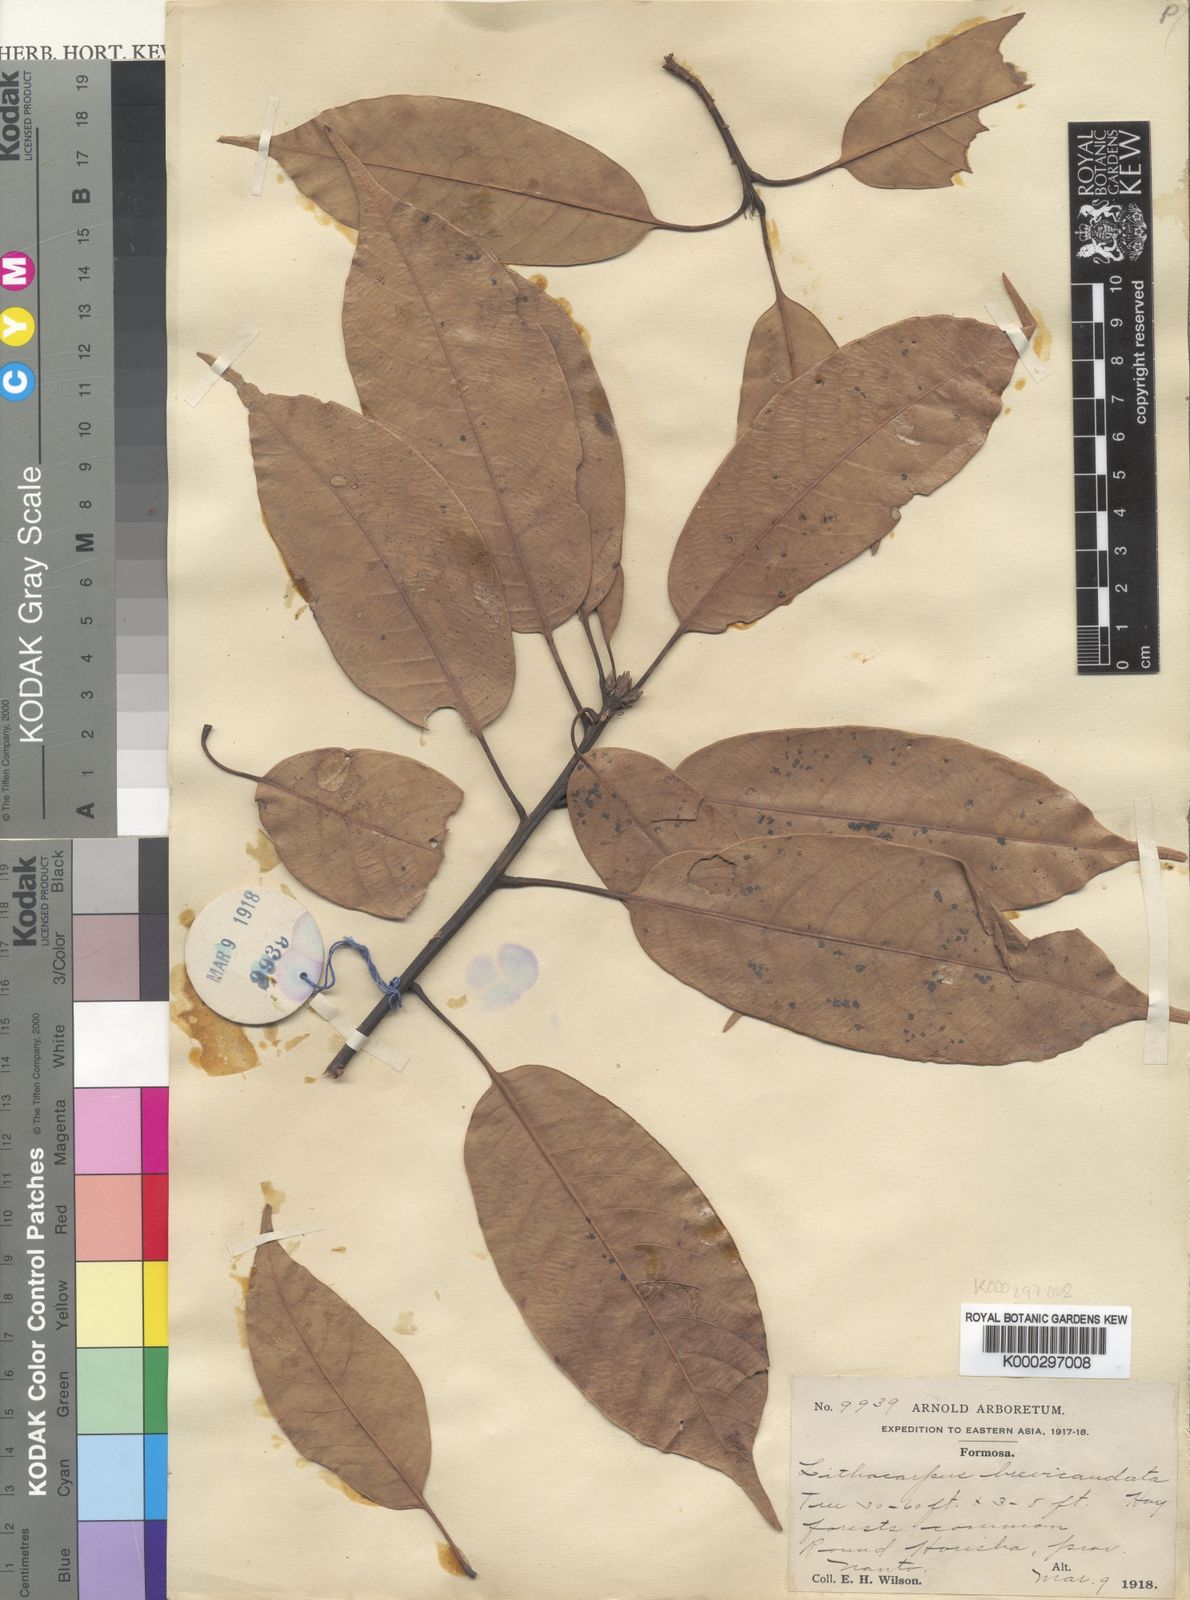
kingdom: Plantae
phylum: Tracheophyta
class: Magnoliopsida
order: Fagales
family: Fagaceae
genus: Lithocarpus
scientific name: Lithocarpus
